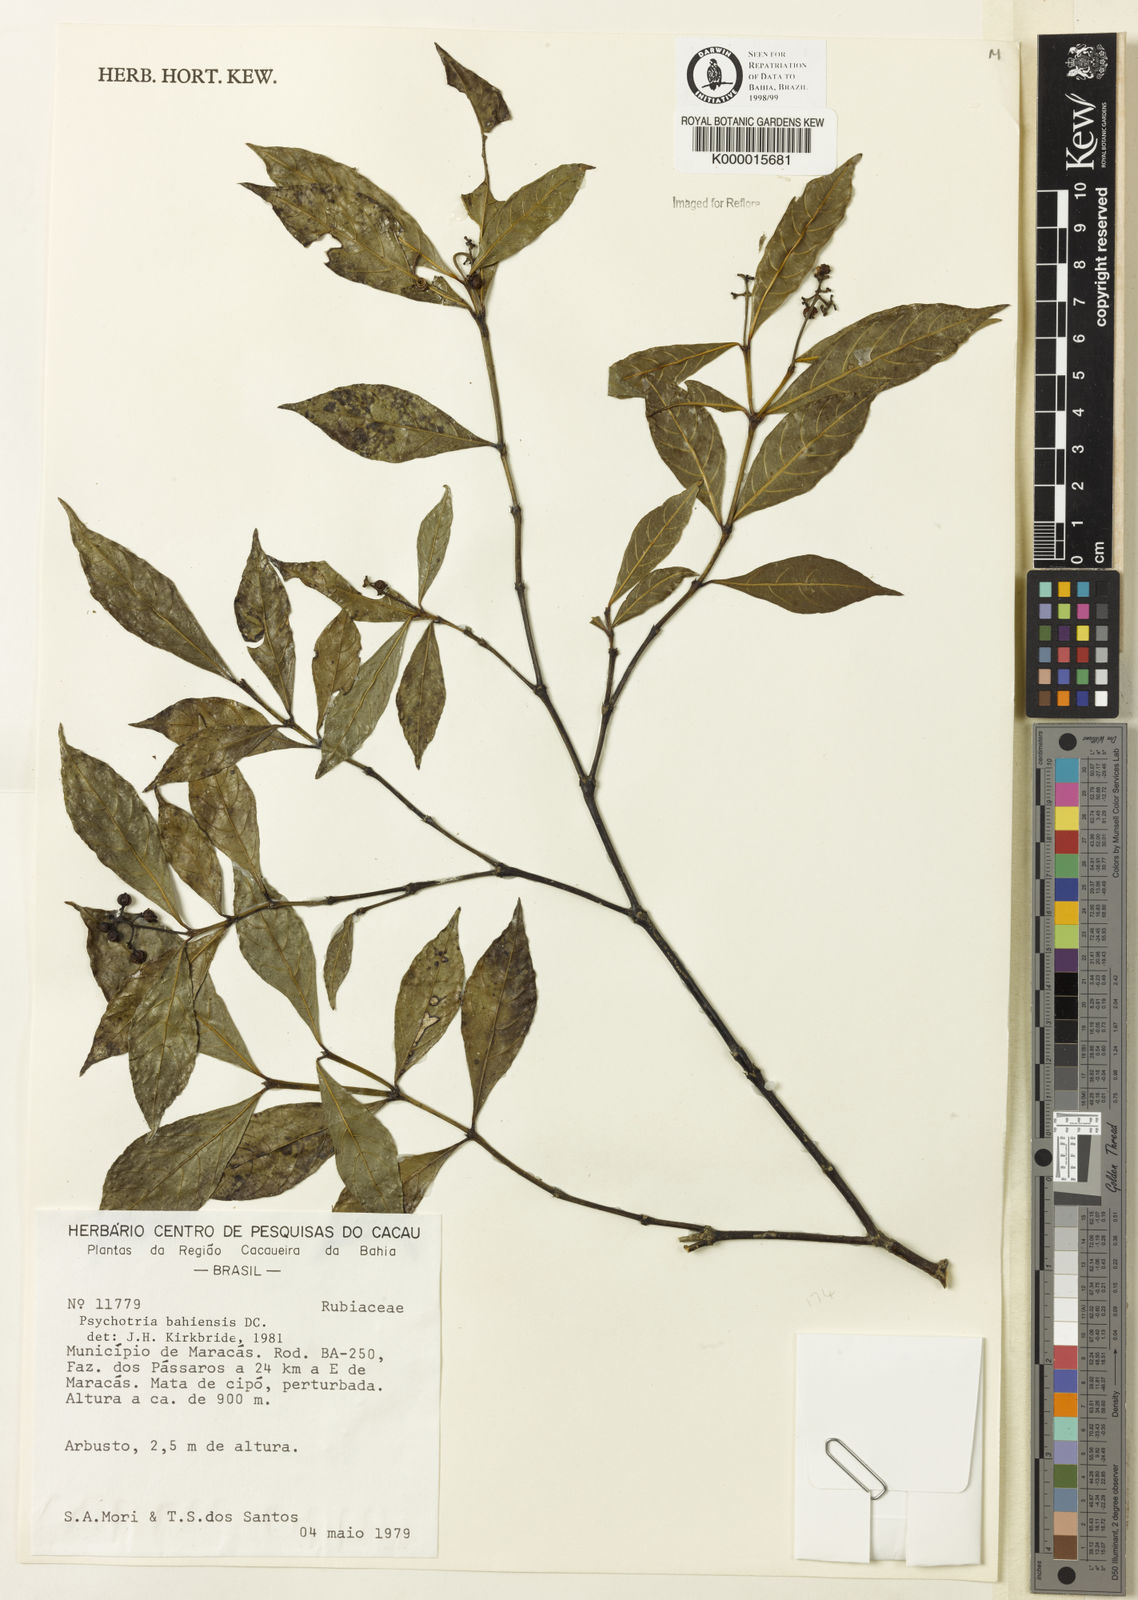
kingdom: Plantae
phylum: Tracheophyta
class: Magnoliopsida
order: Gentianales
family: Rubiaceae
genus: Psychotria
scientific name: Psychotria bahiensis
